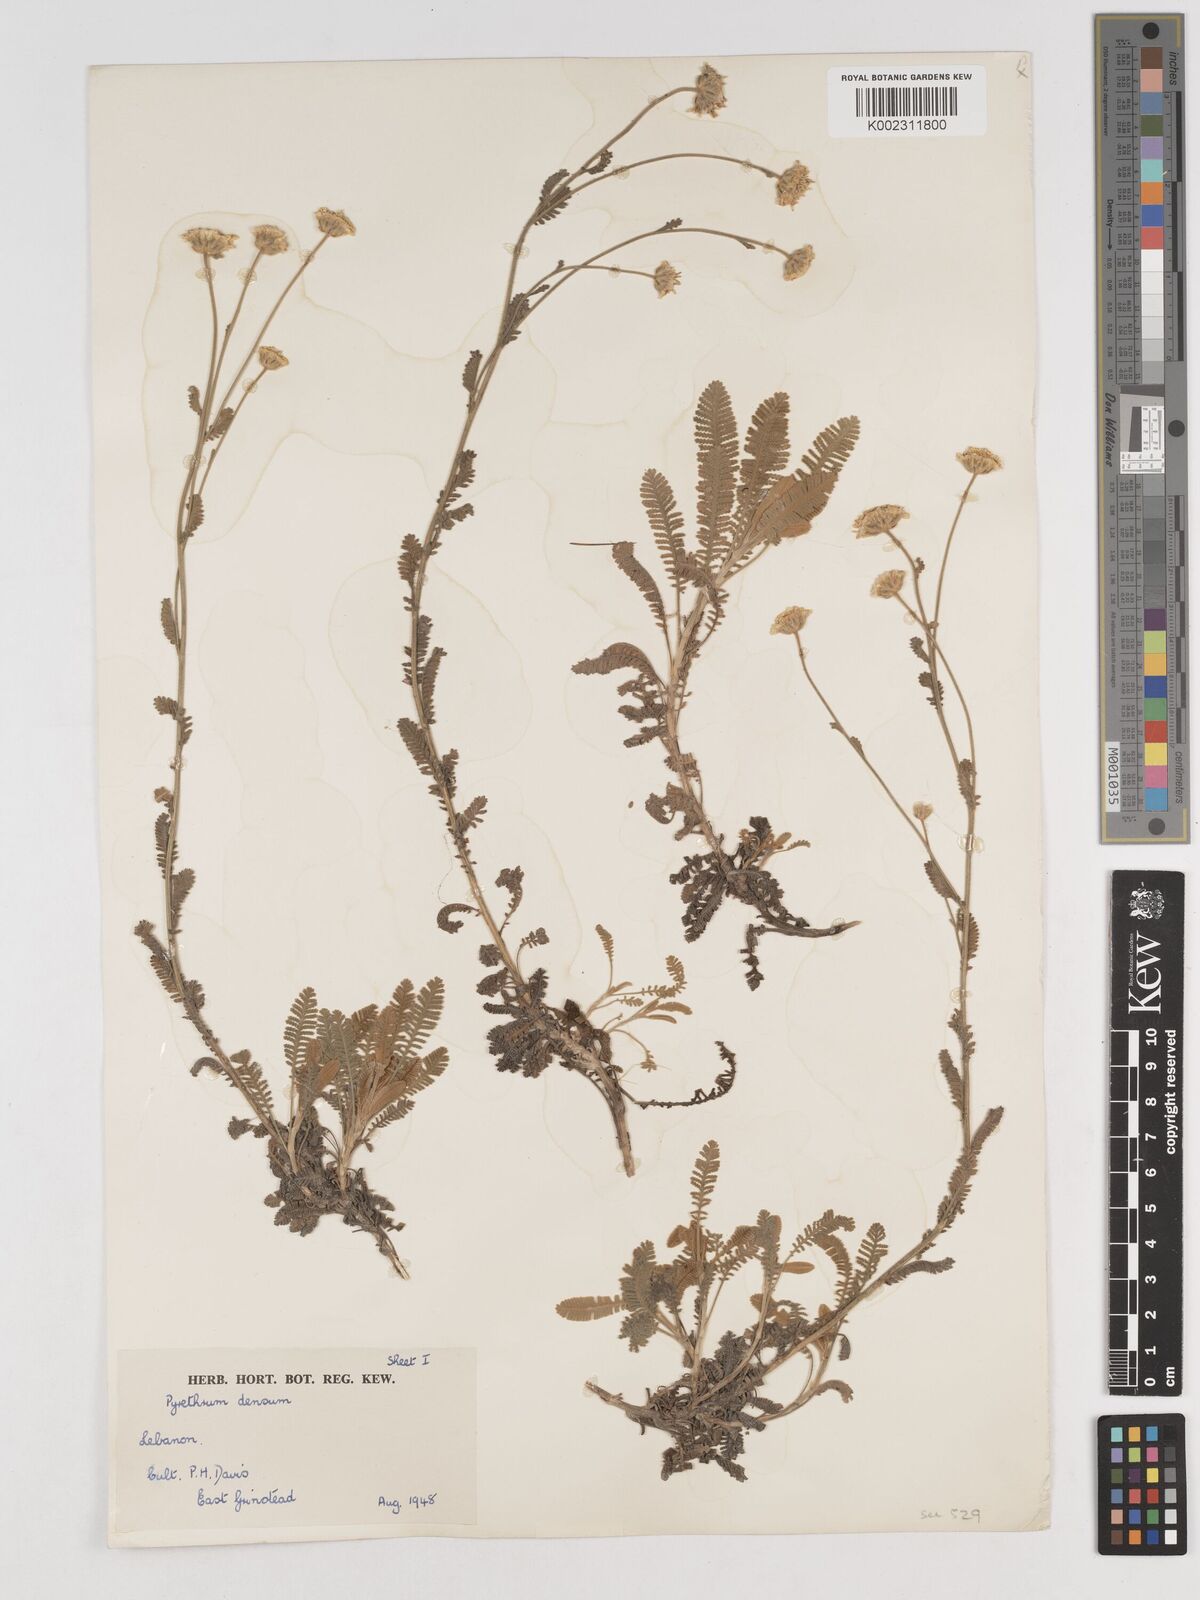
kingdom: Plantae
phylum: Tracheophyta
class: Magnoliopsida
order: Asterales
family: Asteraceae
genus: Tanacetum
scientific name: Tanacetum densum
